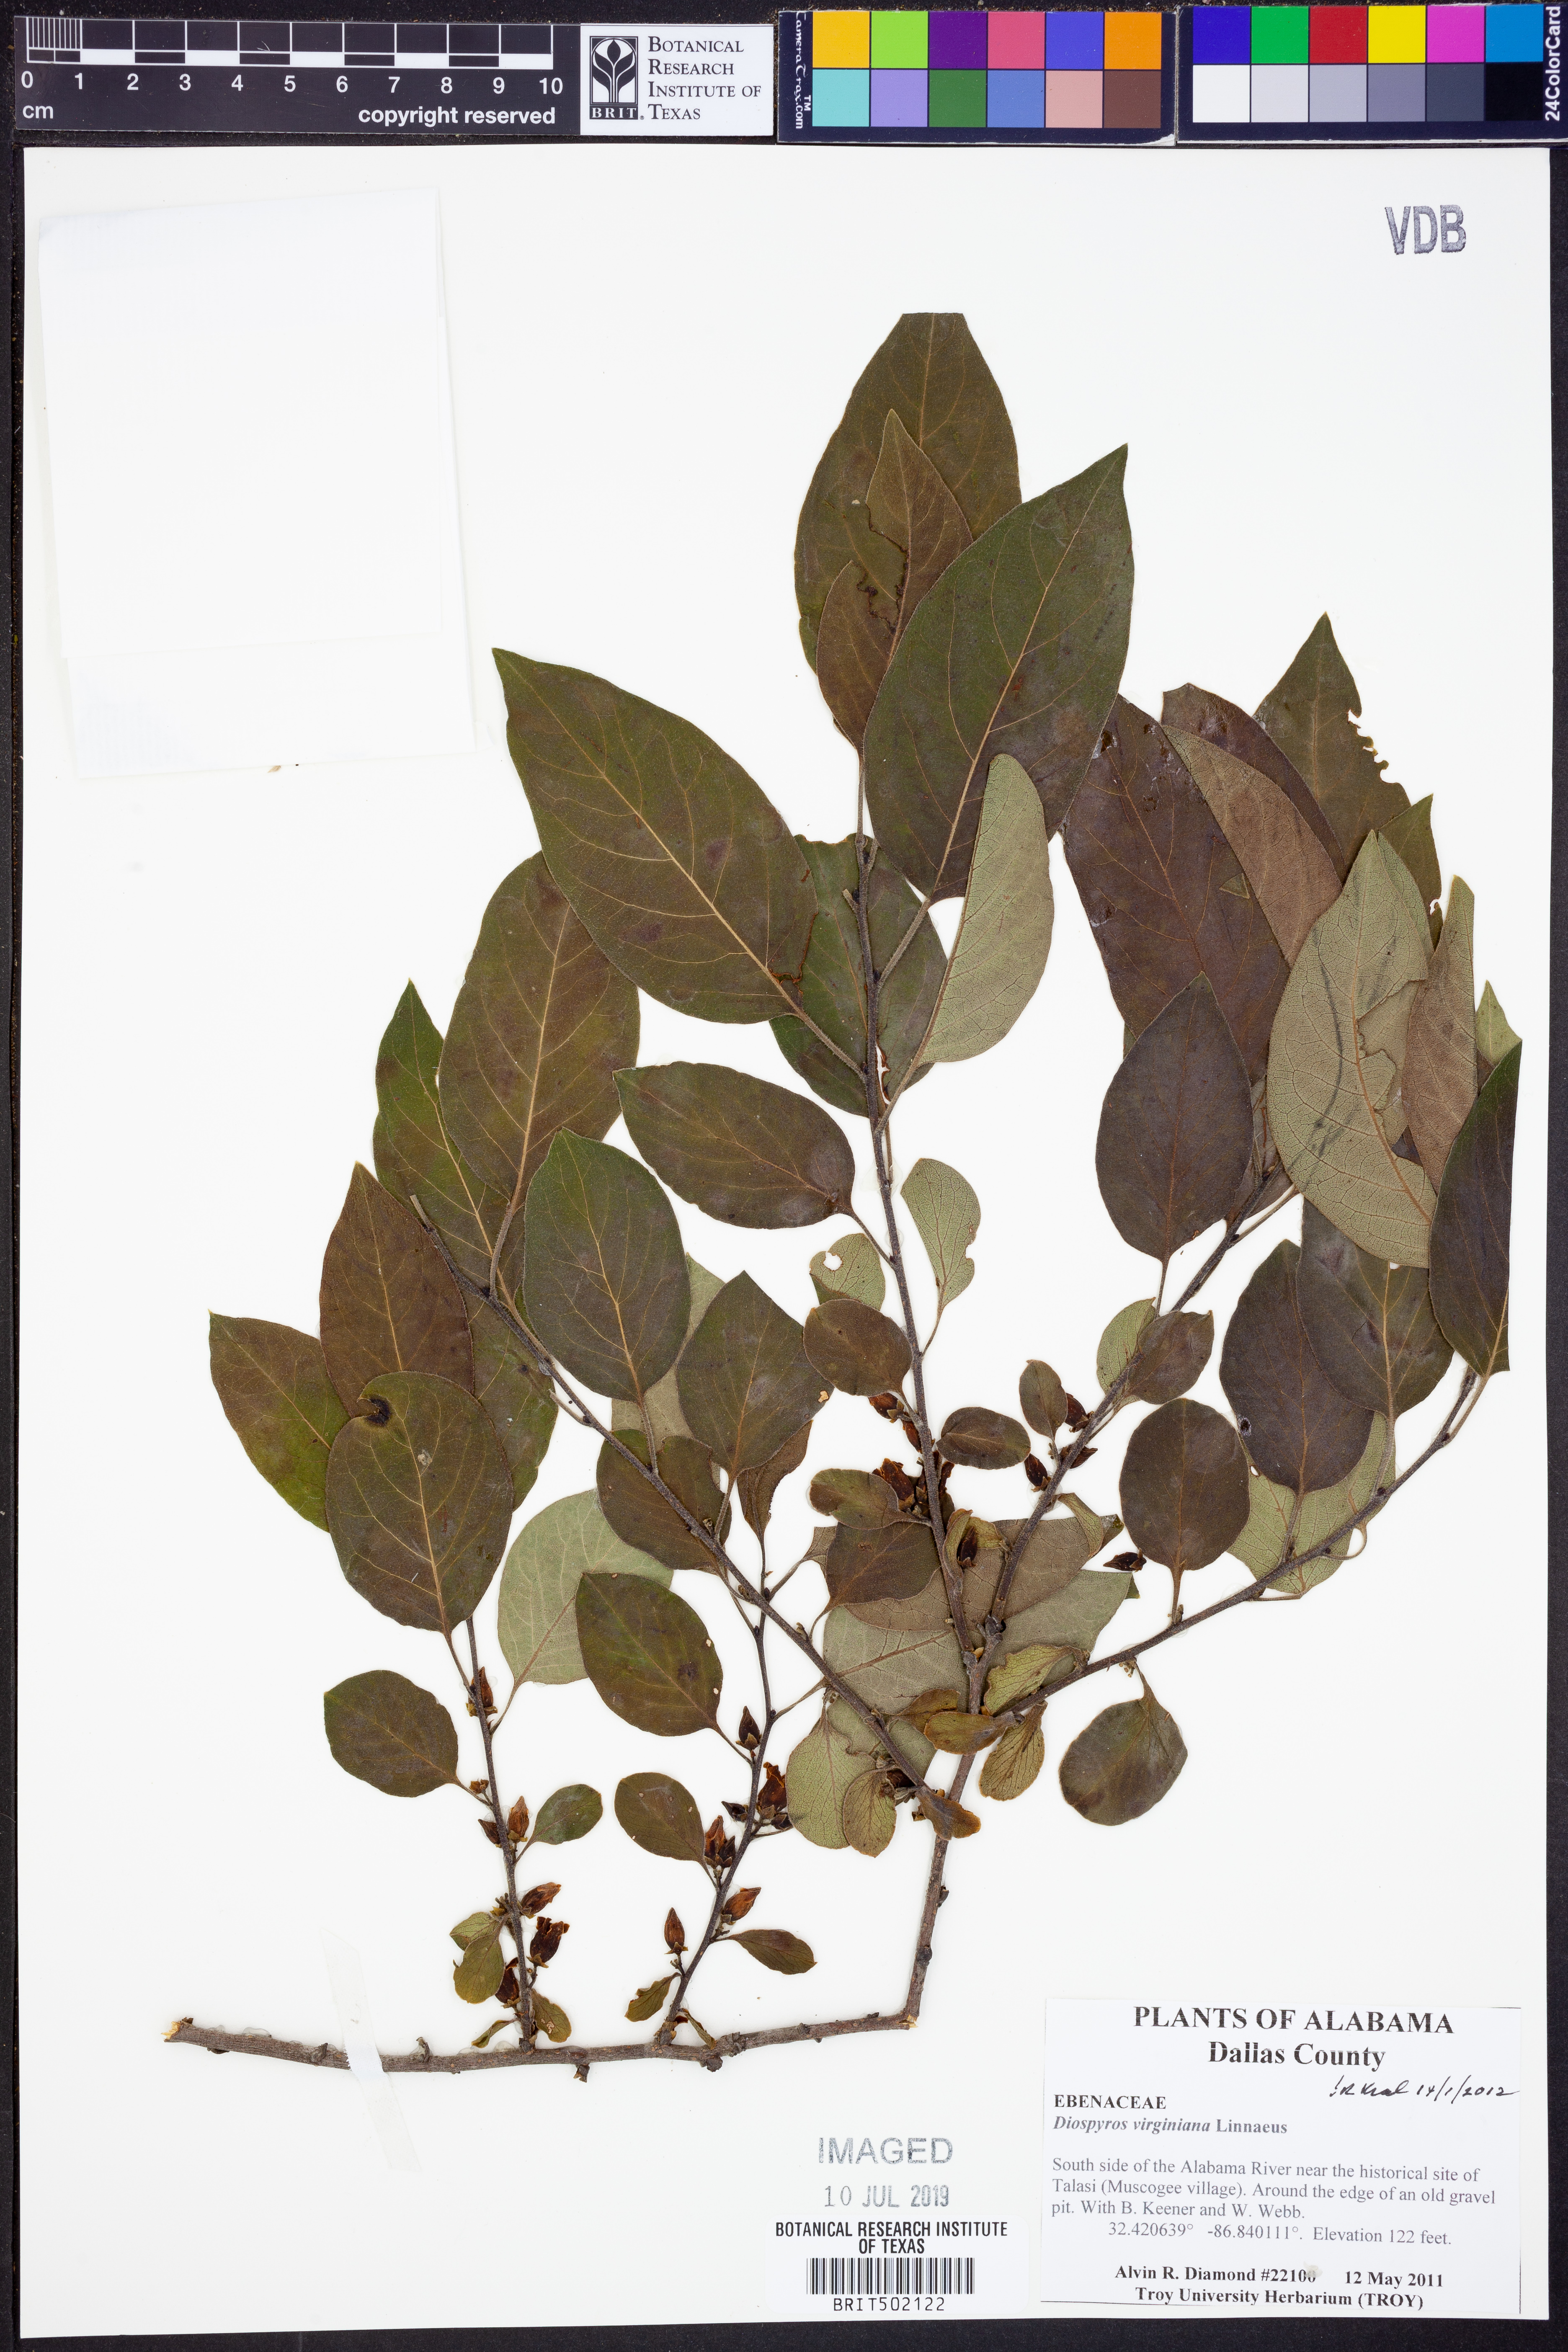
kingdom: Plantae
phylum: Tracheophyta
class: Magnoliopsida
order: Ericales
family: Ebenaceae
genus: Diospyros
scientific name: Diospyros virginiana
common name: Persimmon
